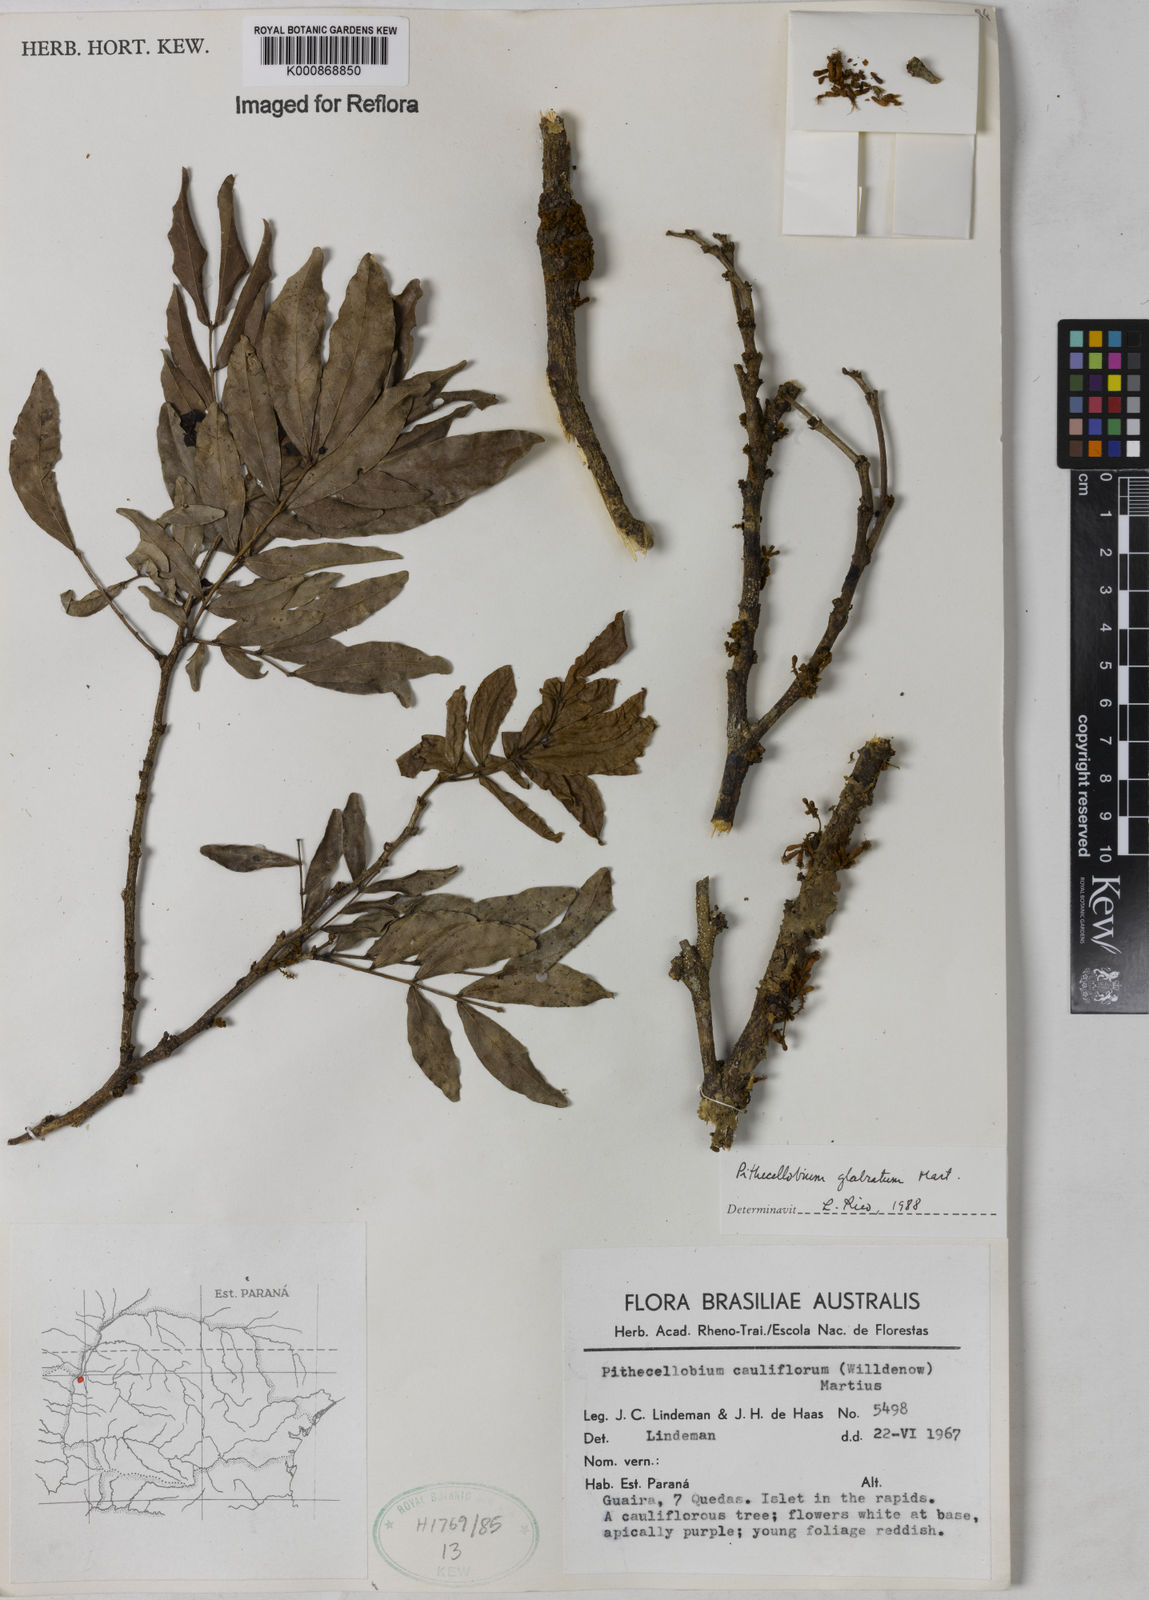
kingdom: Plantae
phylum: Tracheophyta
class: Magnoliopsida
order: Fabales
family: Fabaceae
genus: Zygia
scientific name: Zygia
